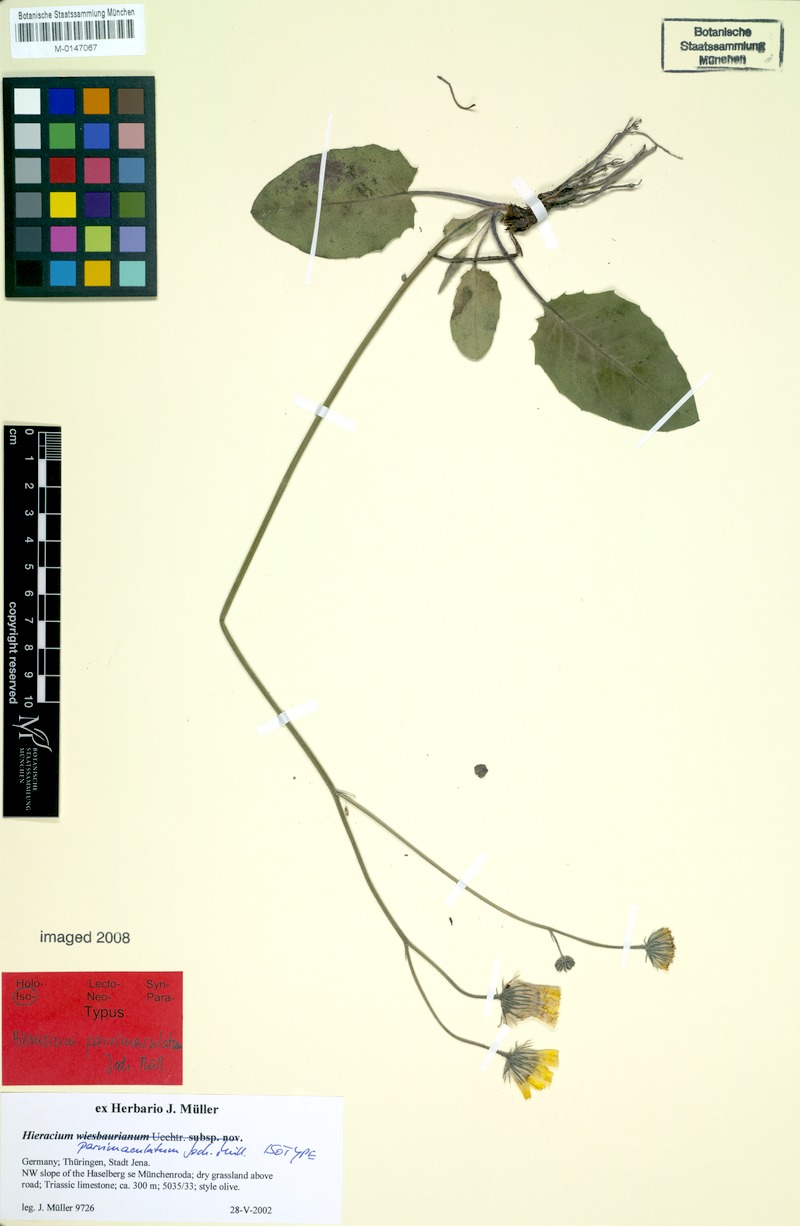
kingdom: Plantae
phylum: Tracheophyta
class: Magnoliopsida
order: Asterales
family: Asteraceae
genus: Hieracium
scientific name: Hieracium hypochoeroides
